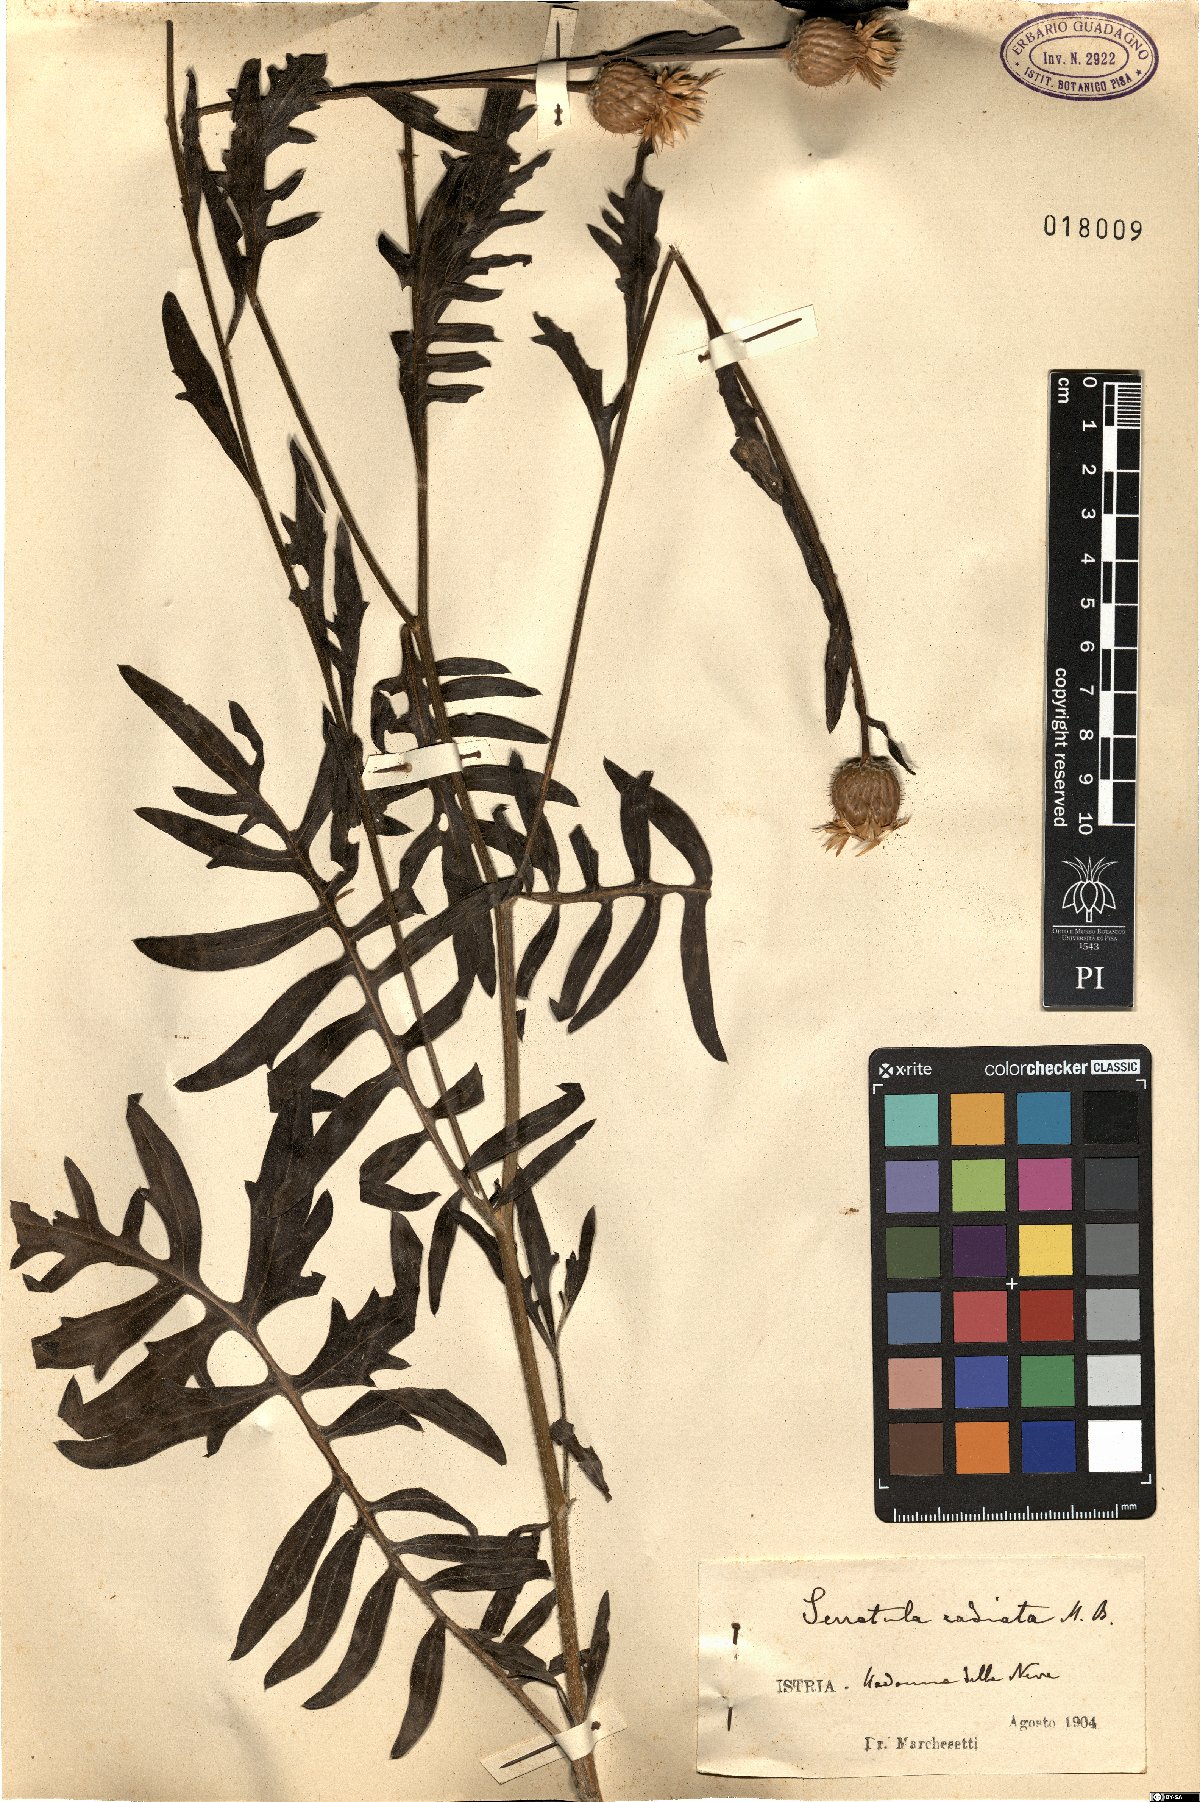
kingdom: Plantae
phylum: Tracheophyta
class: Magnoliopsida
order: Asterales
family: Asteraceae
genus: Klasea
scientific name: Klasea radiata
